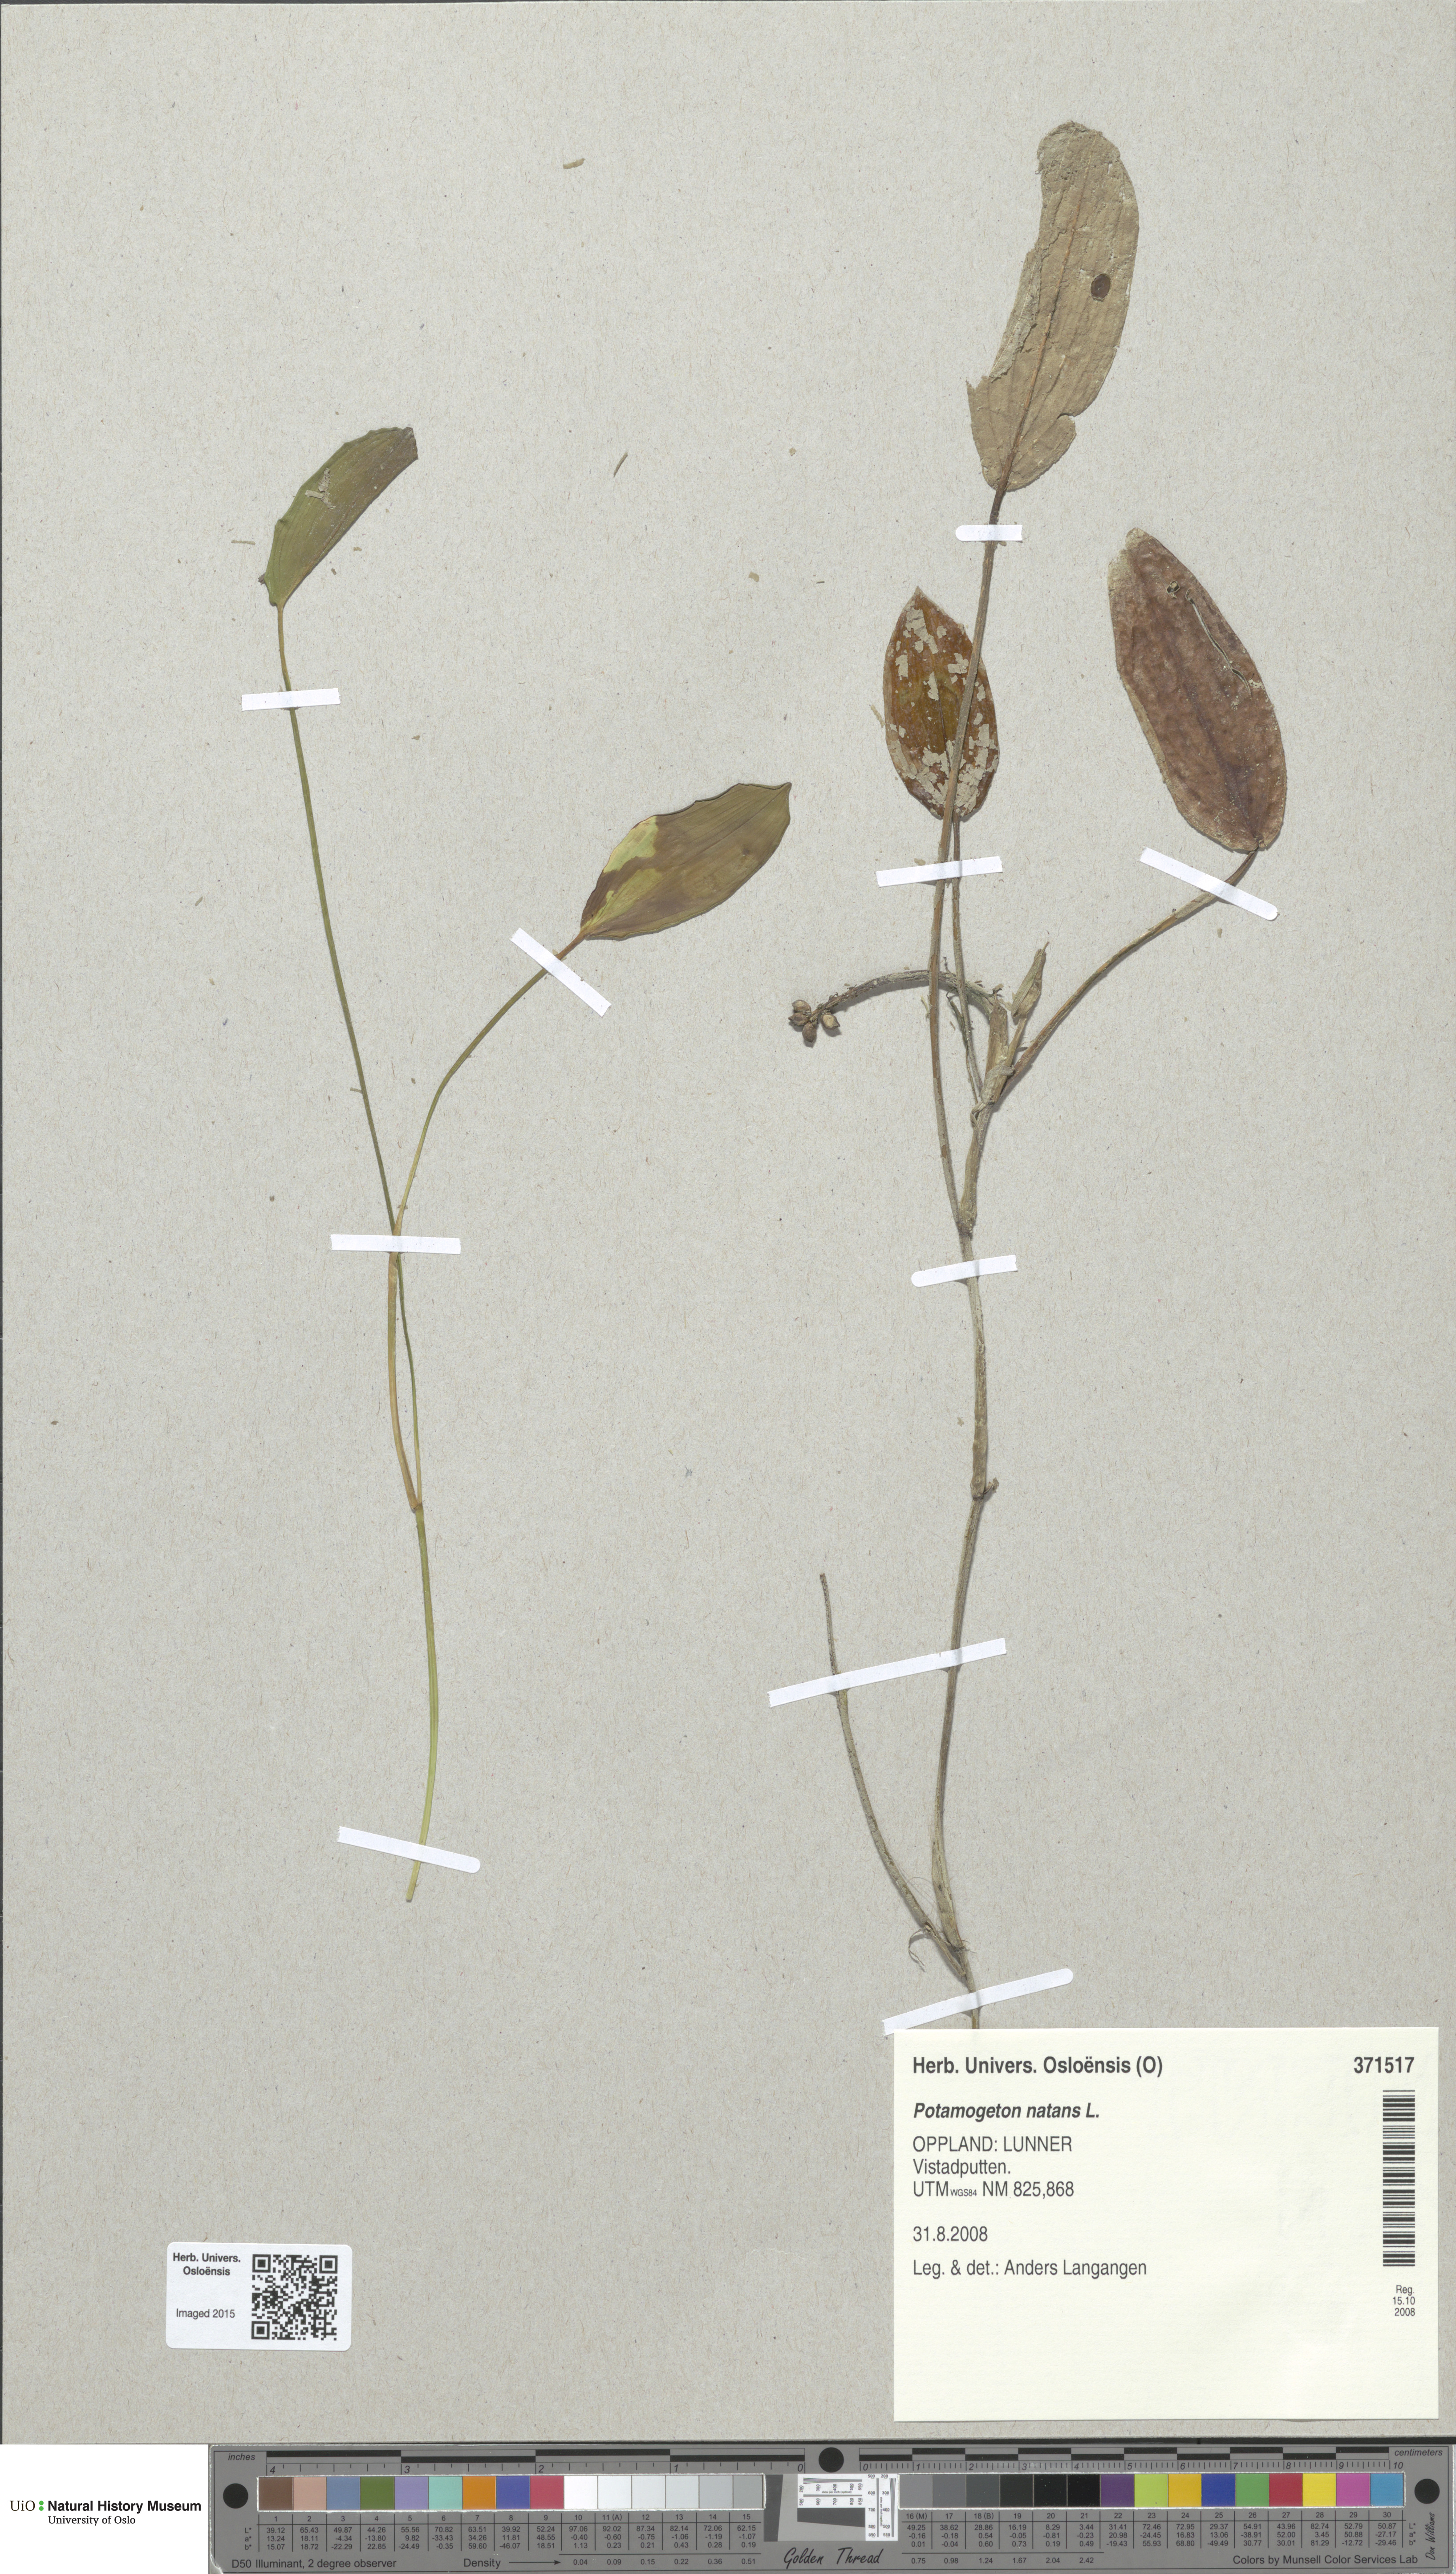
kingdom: Plantae
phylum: Tracheophyta
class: Liliopsida
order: Alismatales
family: Potamogetonaceae
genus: Potamogeton
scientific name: Potamogeton natans
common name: Broad-leaved pondweed
